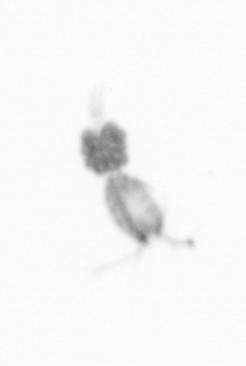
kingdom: Animalia
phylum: Arthropoda
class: Copepoda
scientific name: Copepoda
